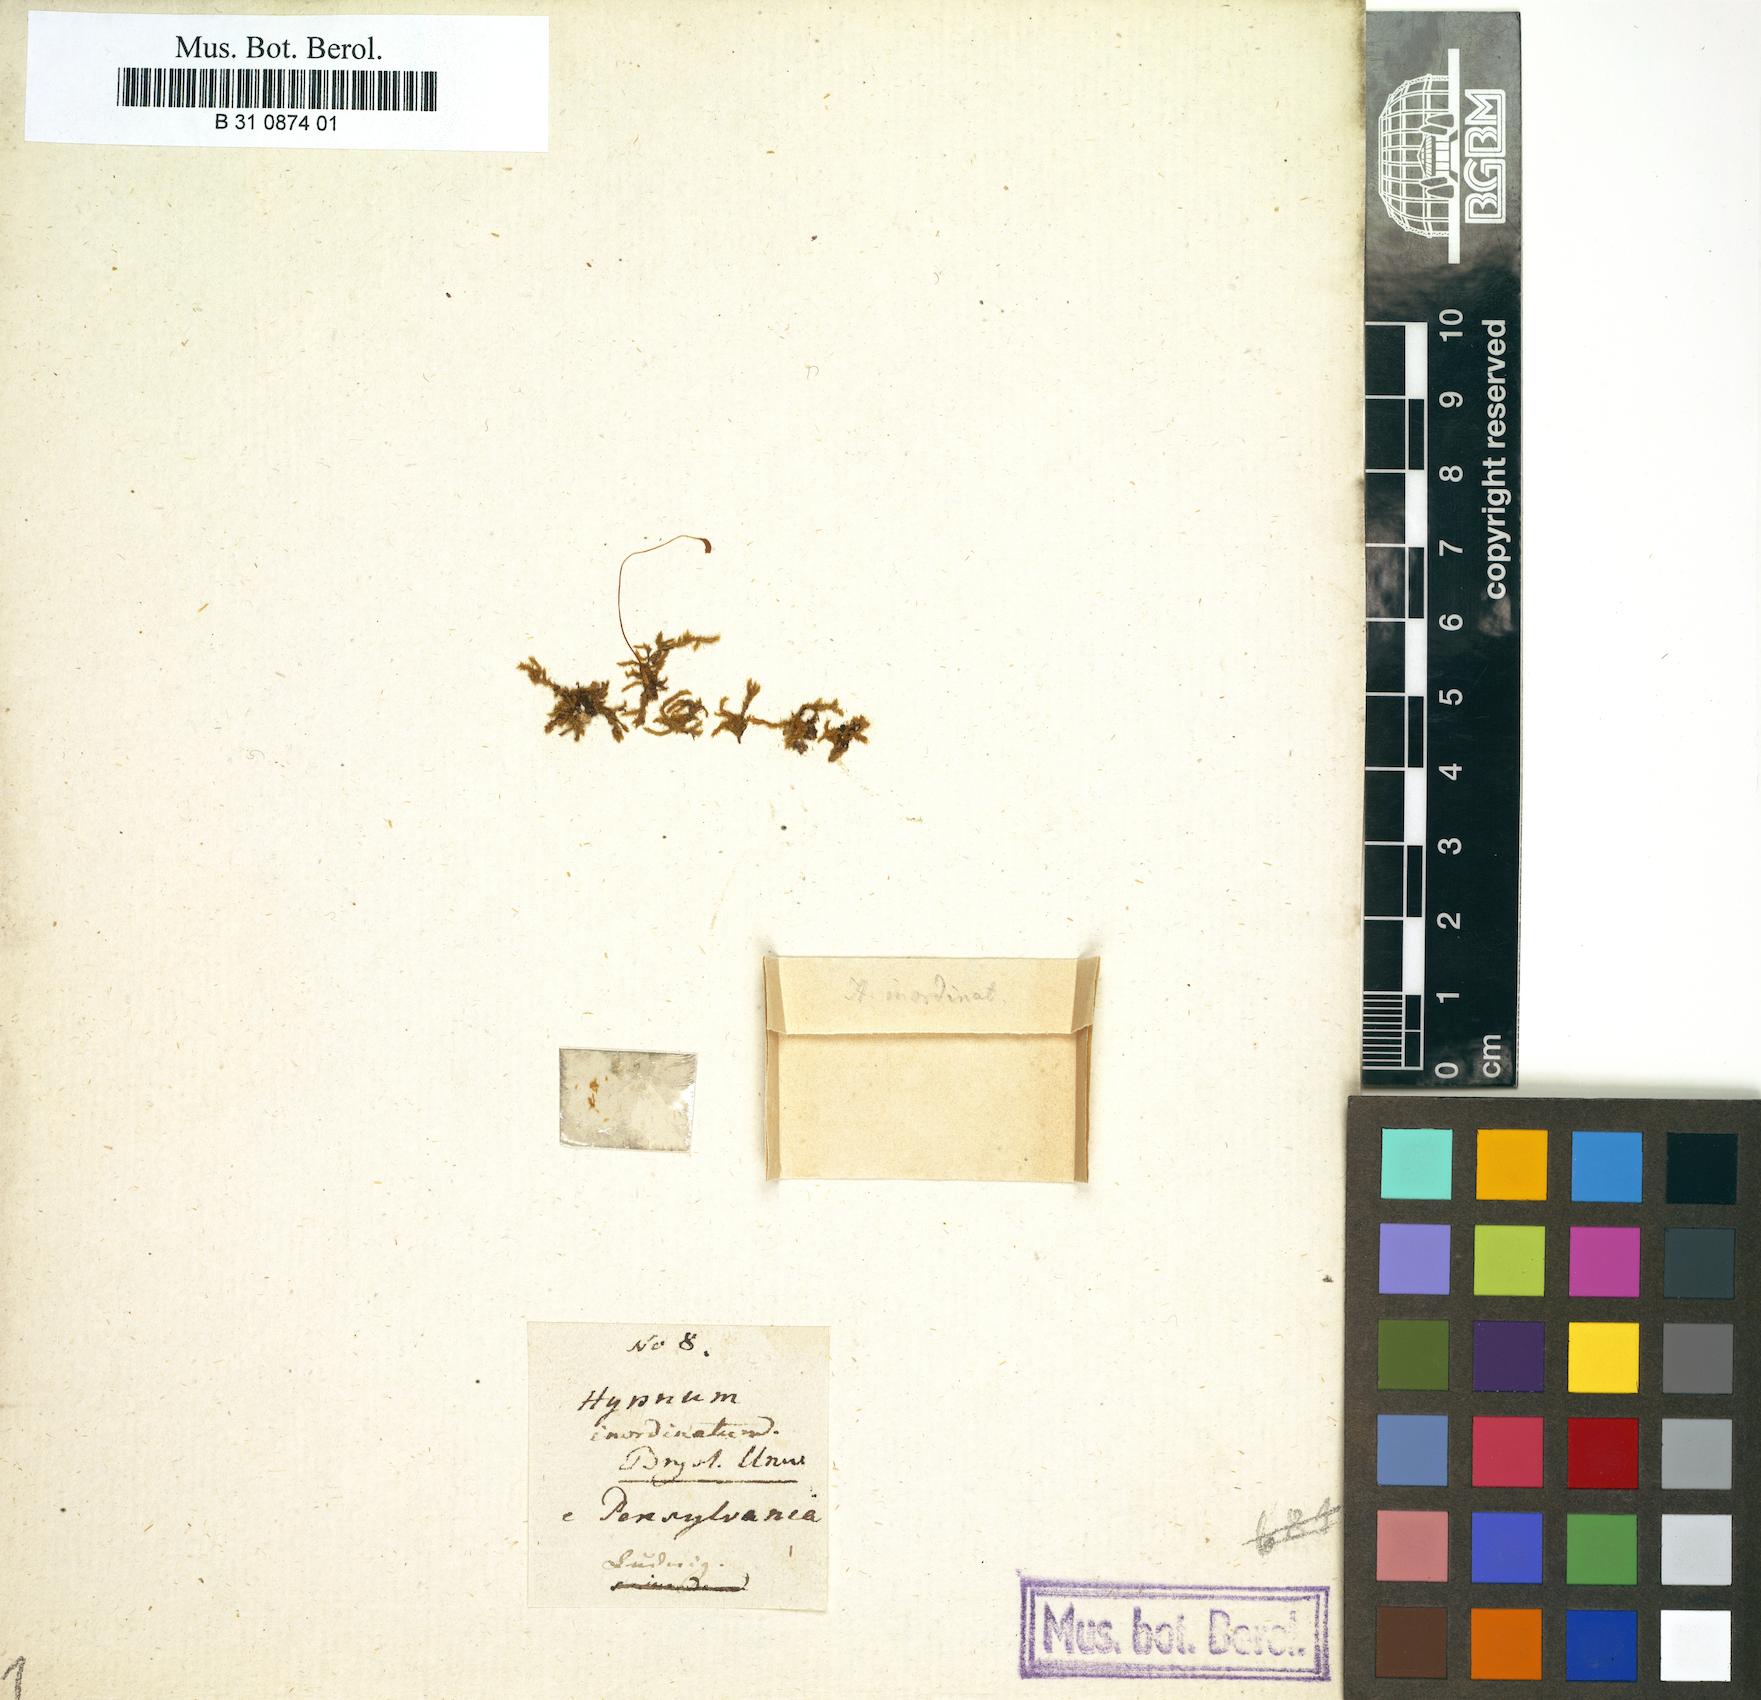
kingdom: Plantae
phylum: Bryophyta
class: Bryopsida
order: Hypnales
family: Amblystegiaceae
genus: Campylium
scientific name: Campylium chrysophyllum
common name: Goldenleaf campylium moss
